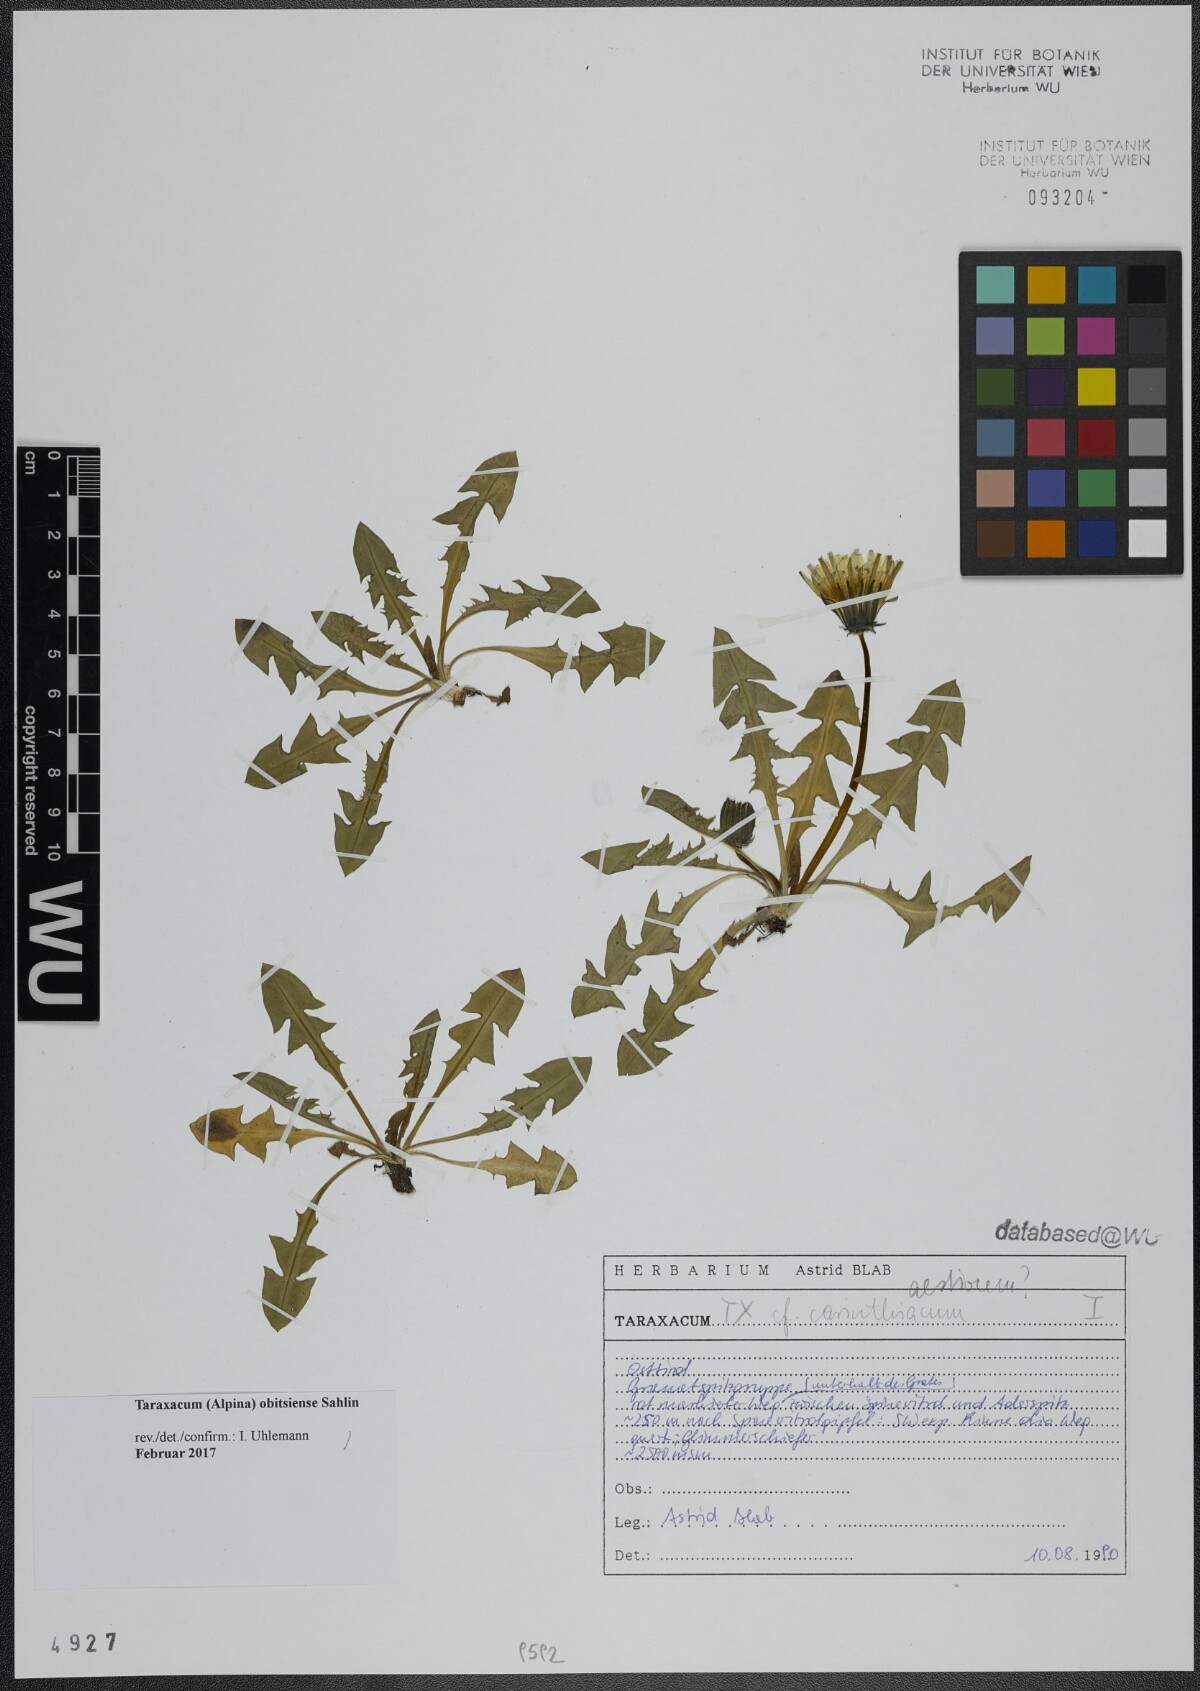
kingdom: Plantae
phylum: Tracheophyta
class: Magnoliopsida
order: Asterales
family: Asteraceae
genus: Taraxacum
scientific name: Taraxacum obitsiense
